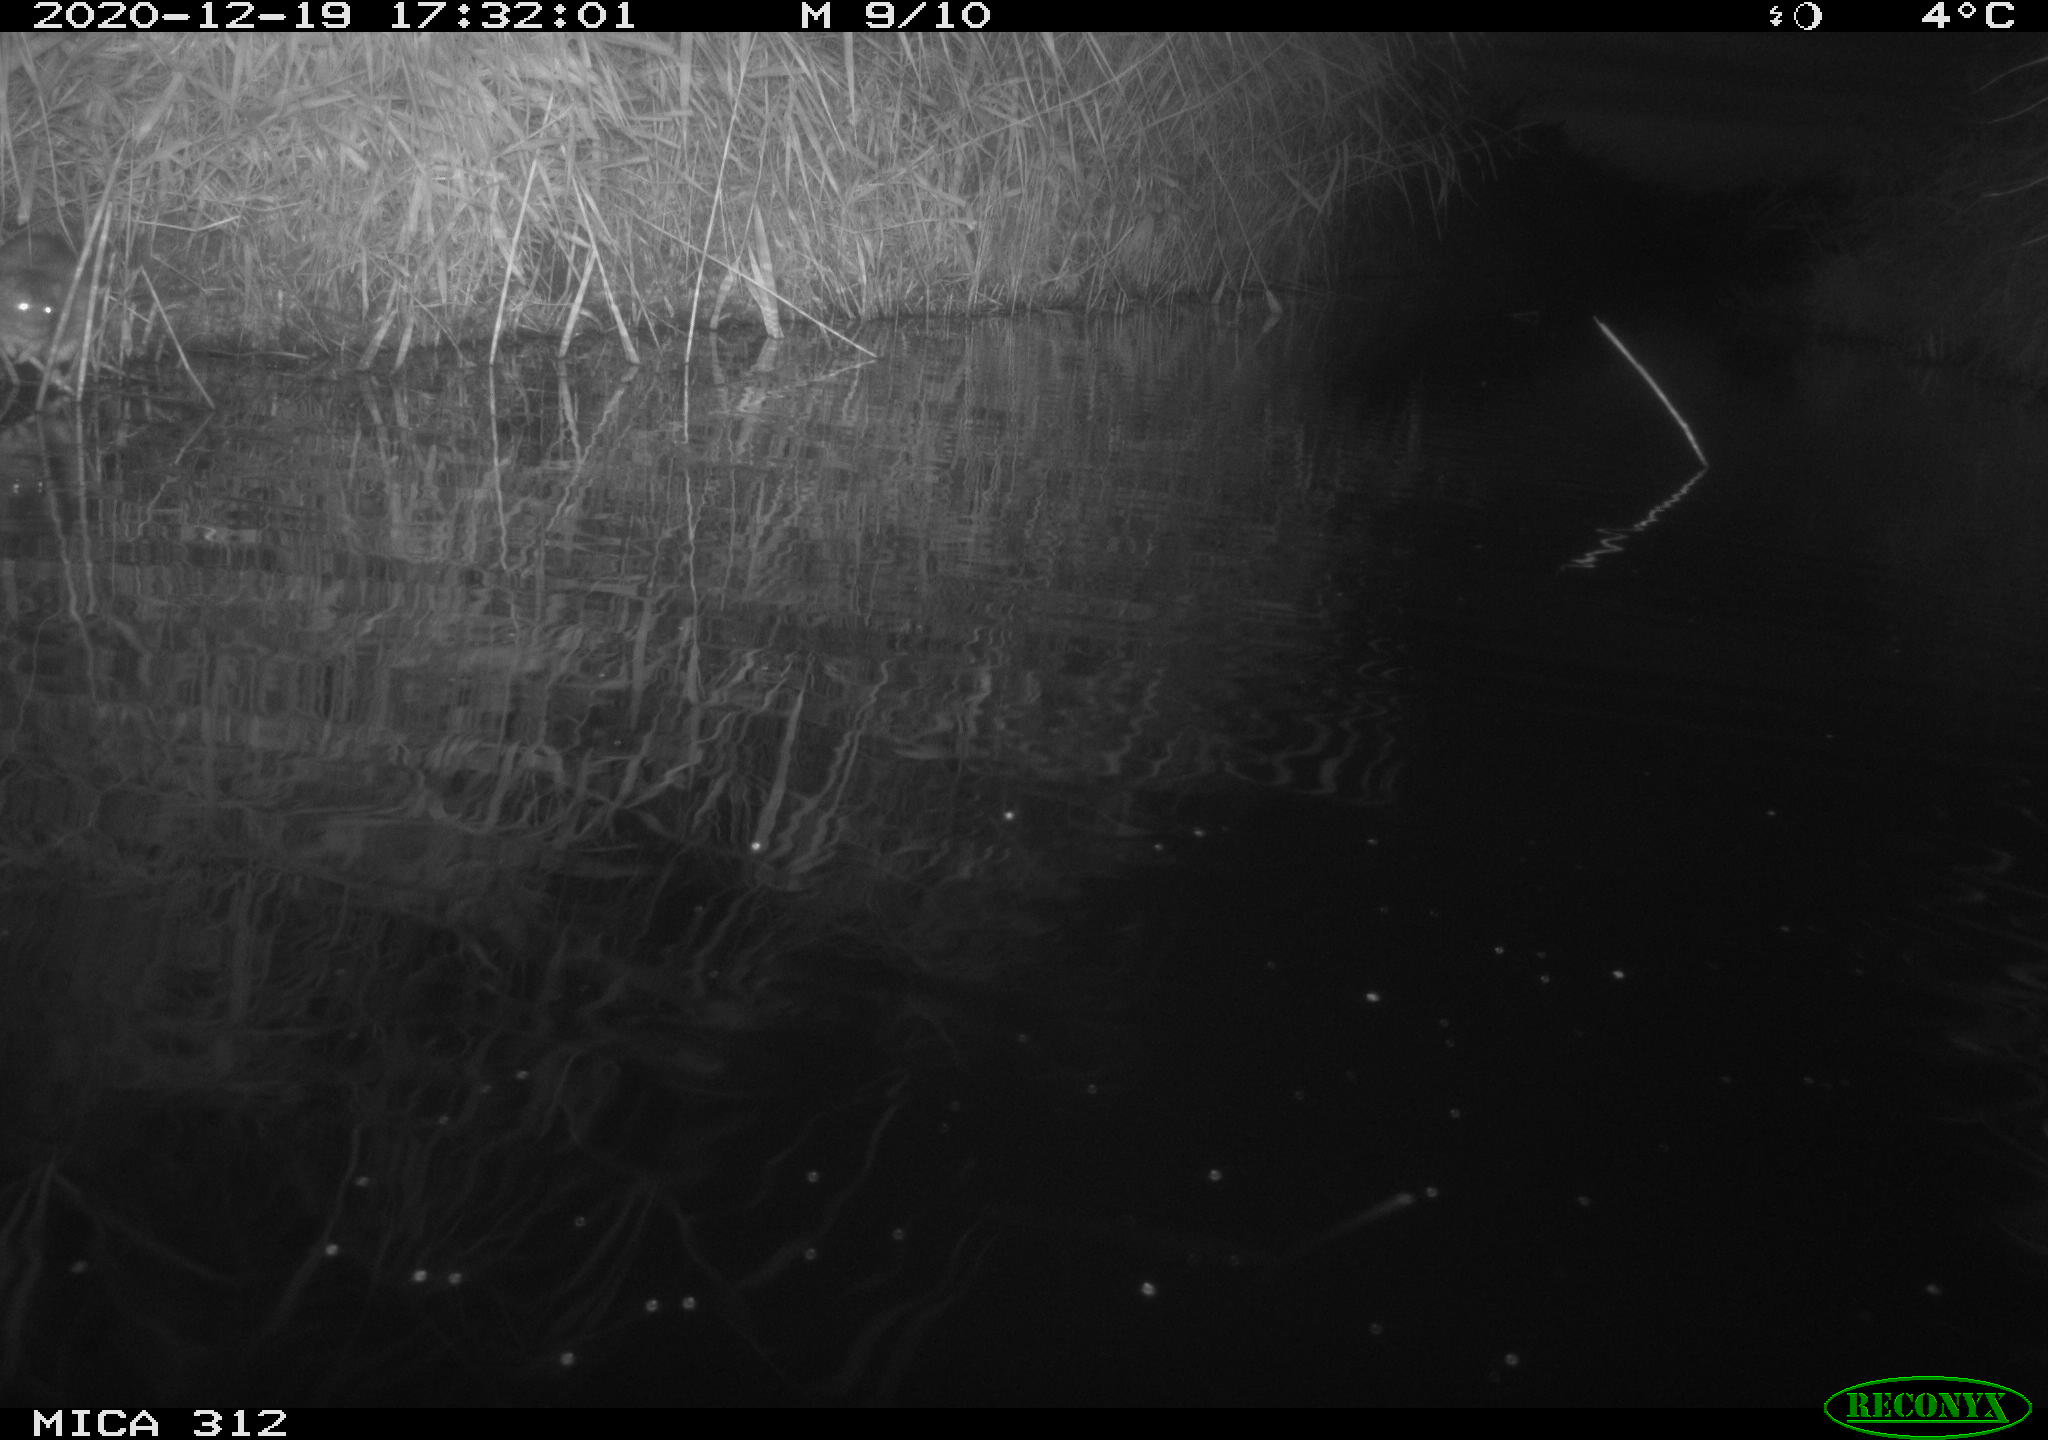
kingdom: Animalia
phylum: Chordata
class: Mammalia
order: Rodentia
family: Muridae
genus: Rattus
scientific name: Rattus norvegicus
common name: Brown rat
